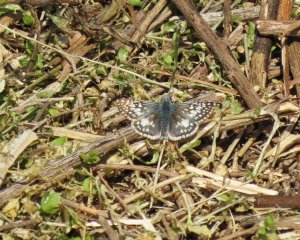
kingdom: Animalia
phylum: Arthropoda
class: Insecta
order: Lepidoptera
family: Hesperiidae
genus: Pyrgus
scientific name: Pyrgus communis
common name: Common Checkered-Skipper
